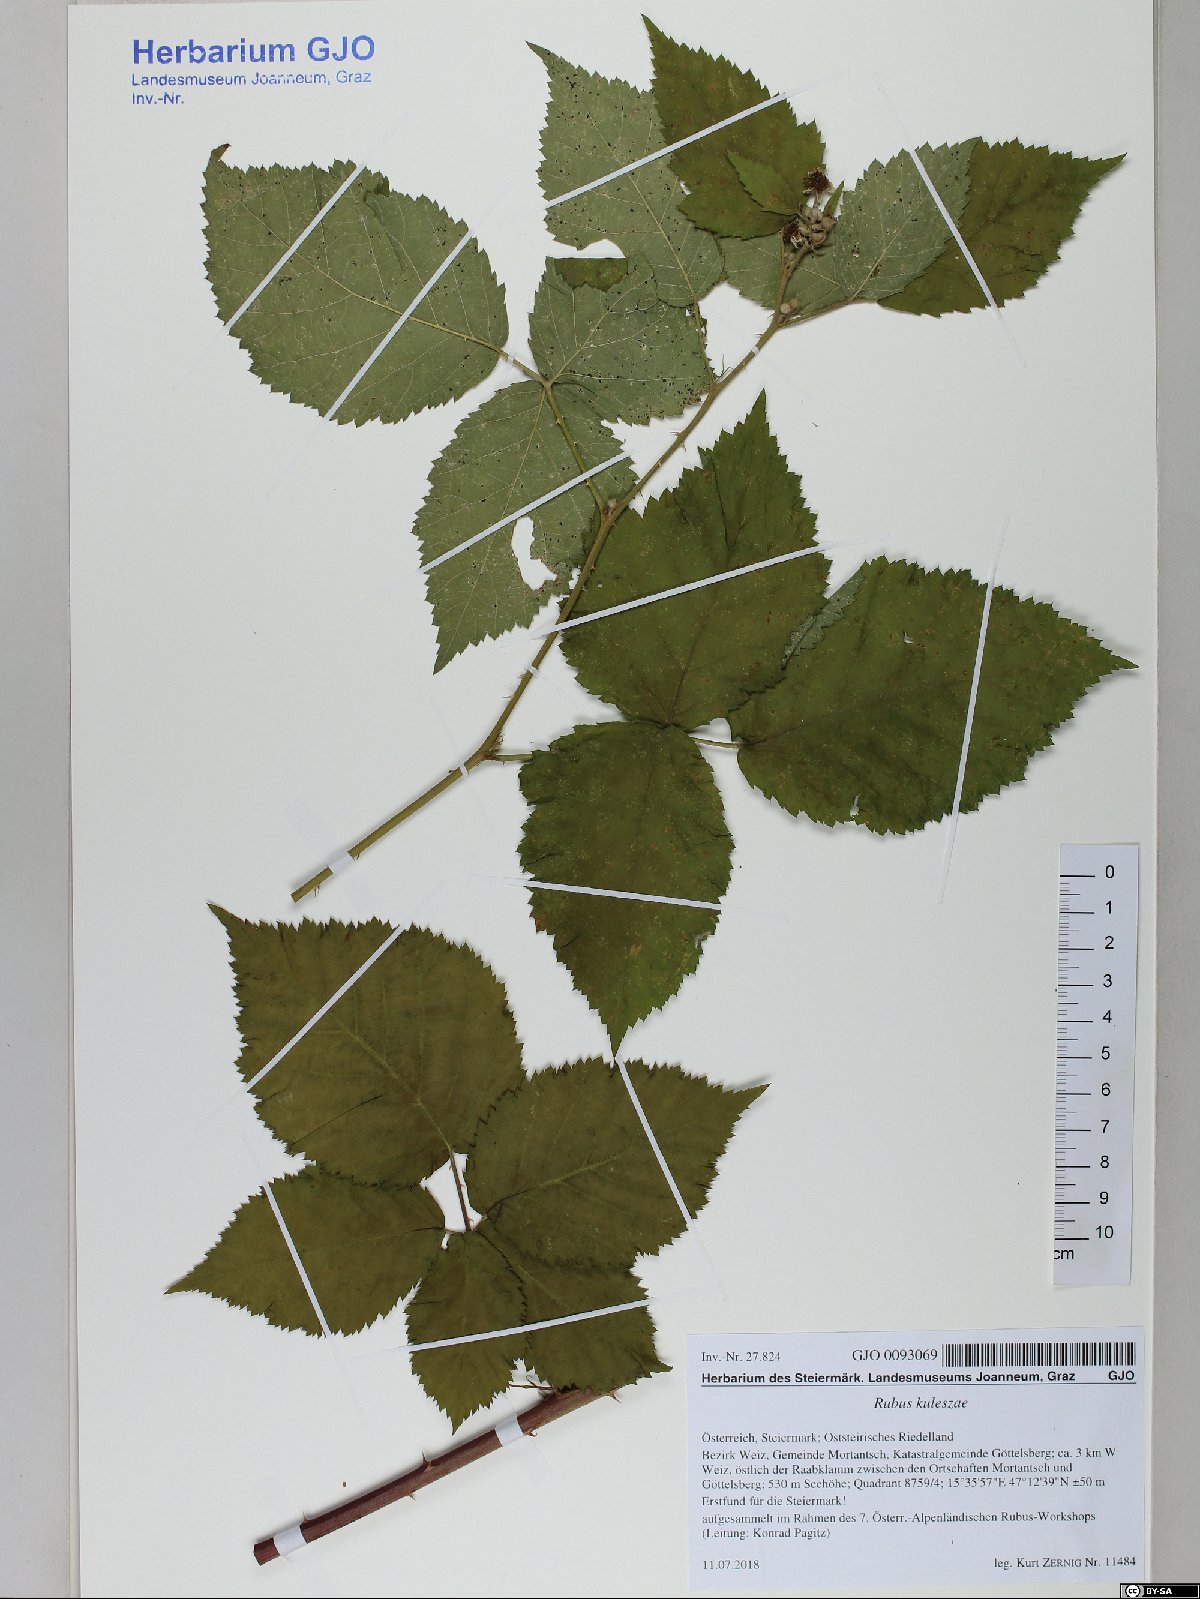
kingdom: Plantae
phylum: Tracheophyta
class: Magnoliopsida
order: Rosales
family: Rosaceae
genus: Rubus
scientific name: Rubus kuleszae
